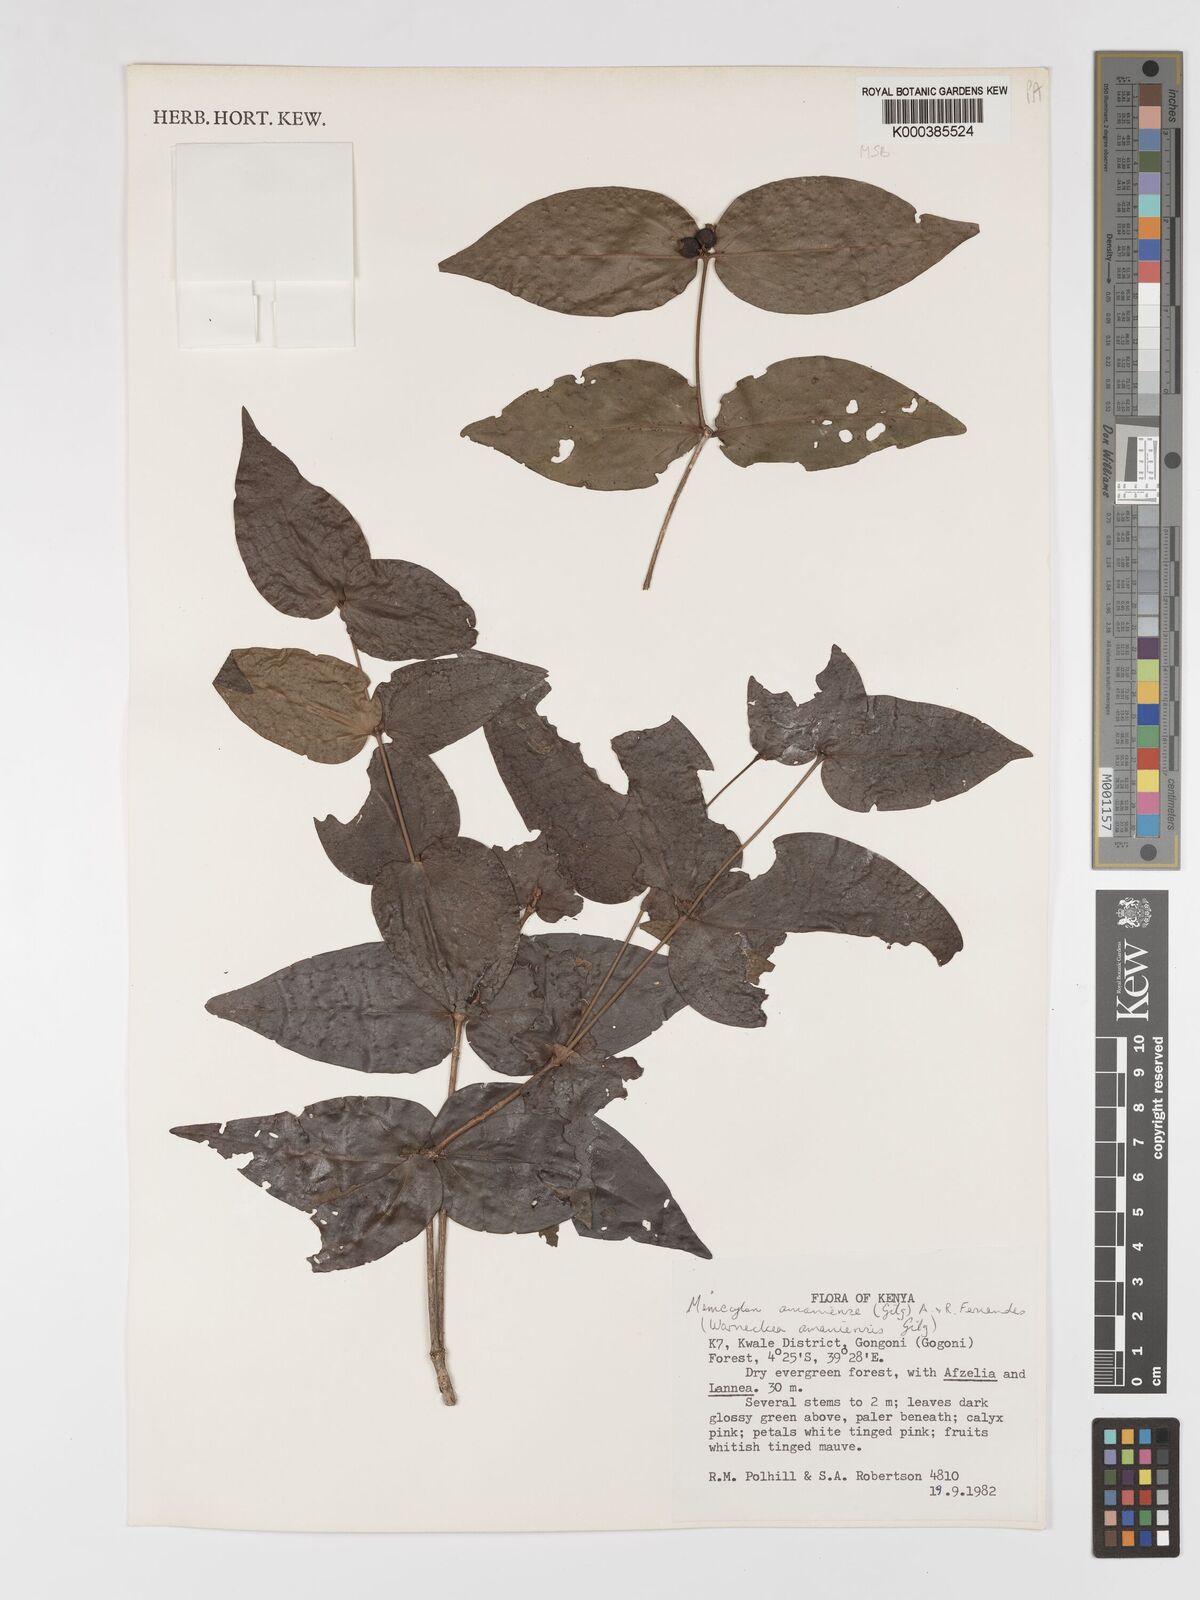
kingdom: Plantae
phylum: Tracheophyta
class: Magnoliopsida
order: Myrtales
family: Melastomataceae
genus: Warneckea
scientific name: Warneckea amaniensis
